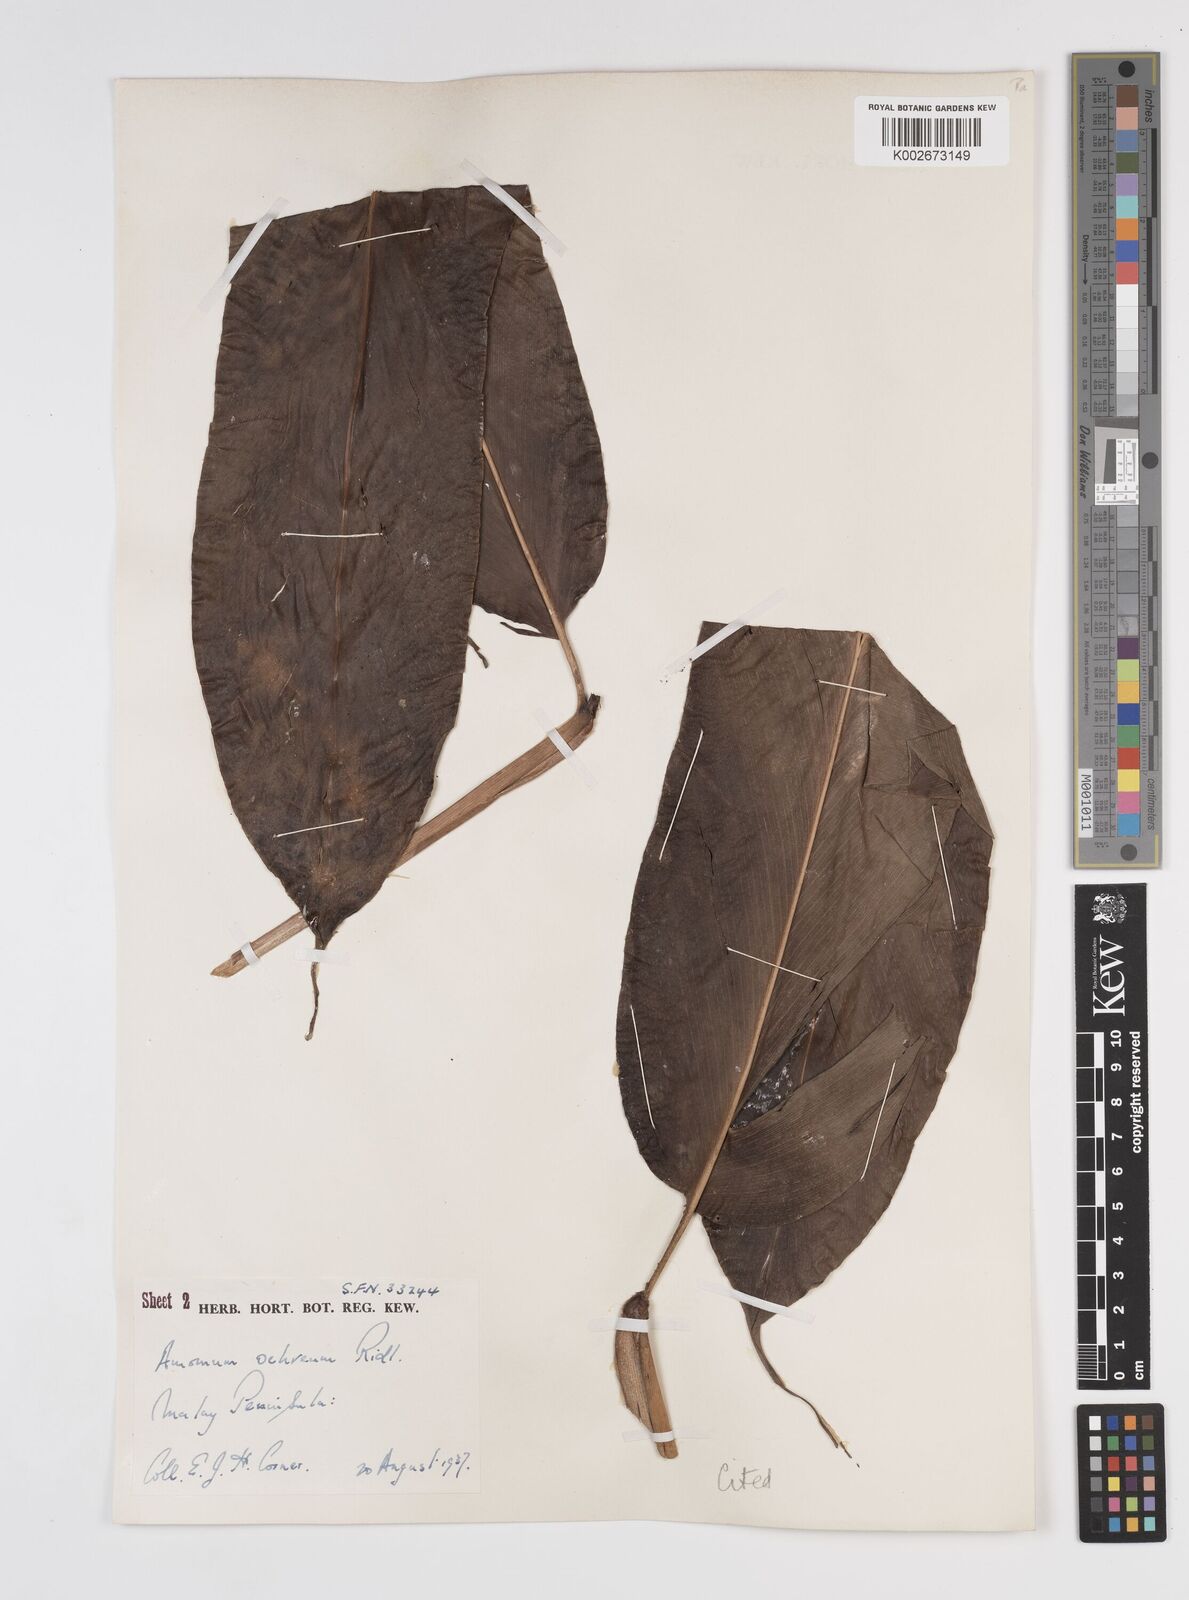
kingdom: Plantae
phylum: Tracheophyta
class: Liliopsida
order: Zingiberales
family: Zingiberaceae
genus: Meistera
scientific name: Meistera ochrea
